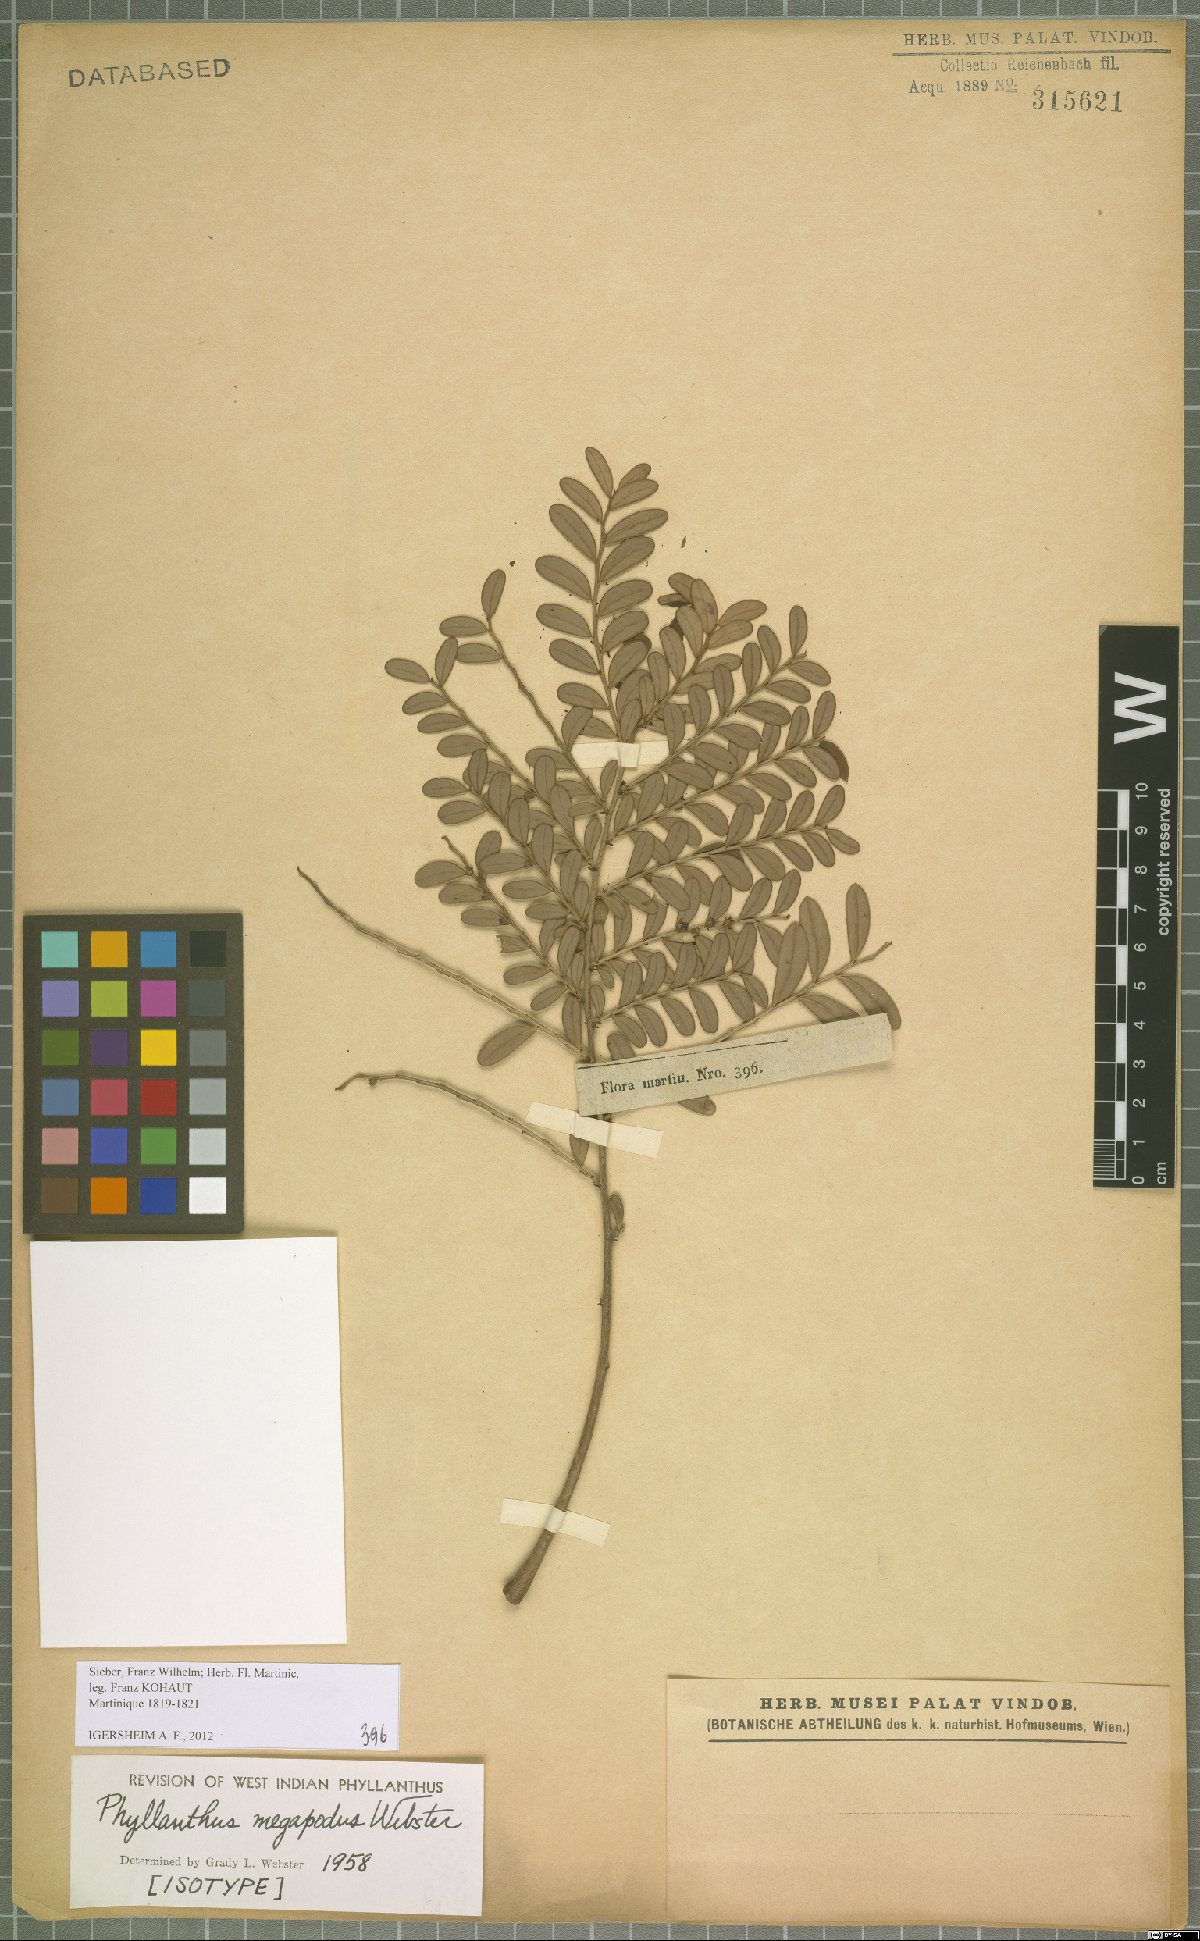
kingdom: Plantae
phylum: Tracheophyta
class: Magnoliopsida
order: Malpighiales
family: Phyllanthaceae
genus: Phyllanthus
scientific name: Phyllanthus megapodus
